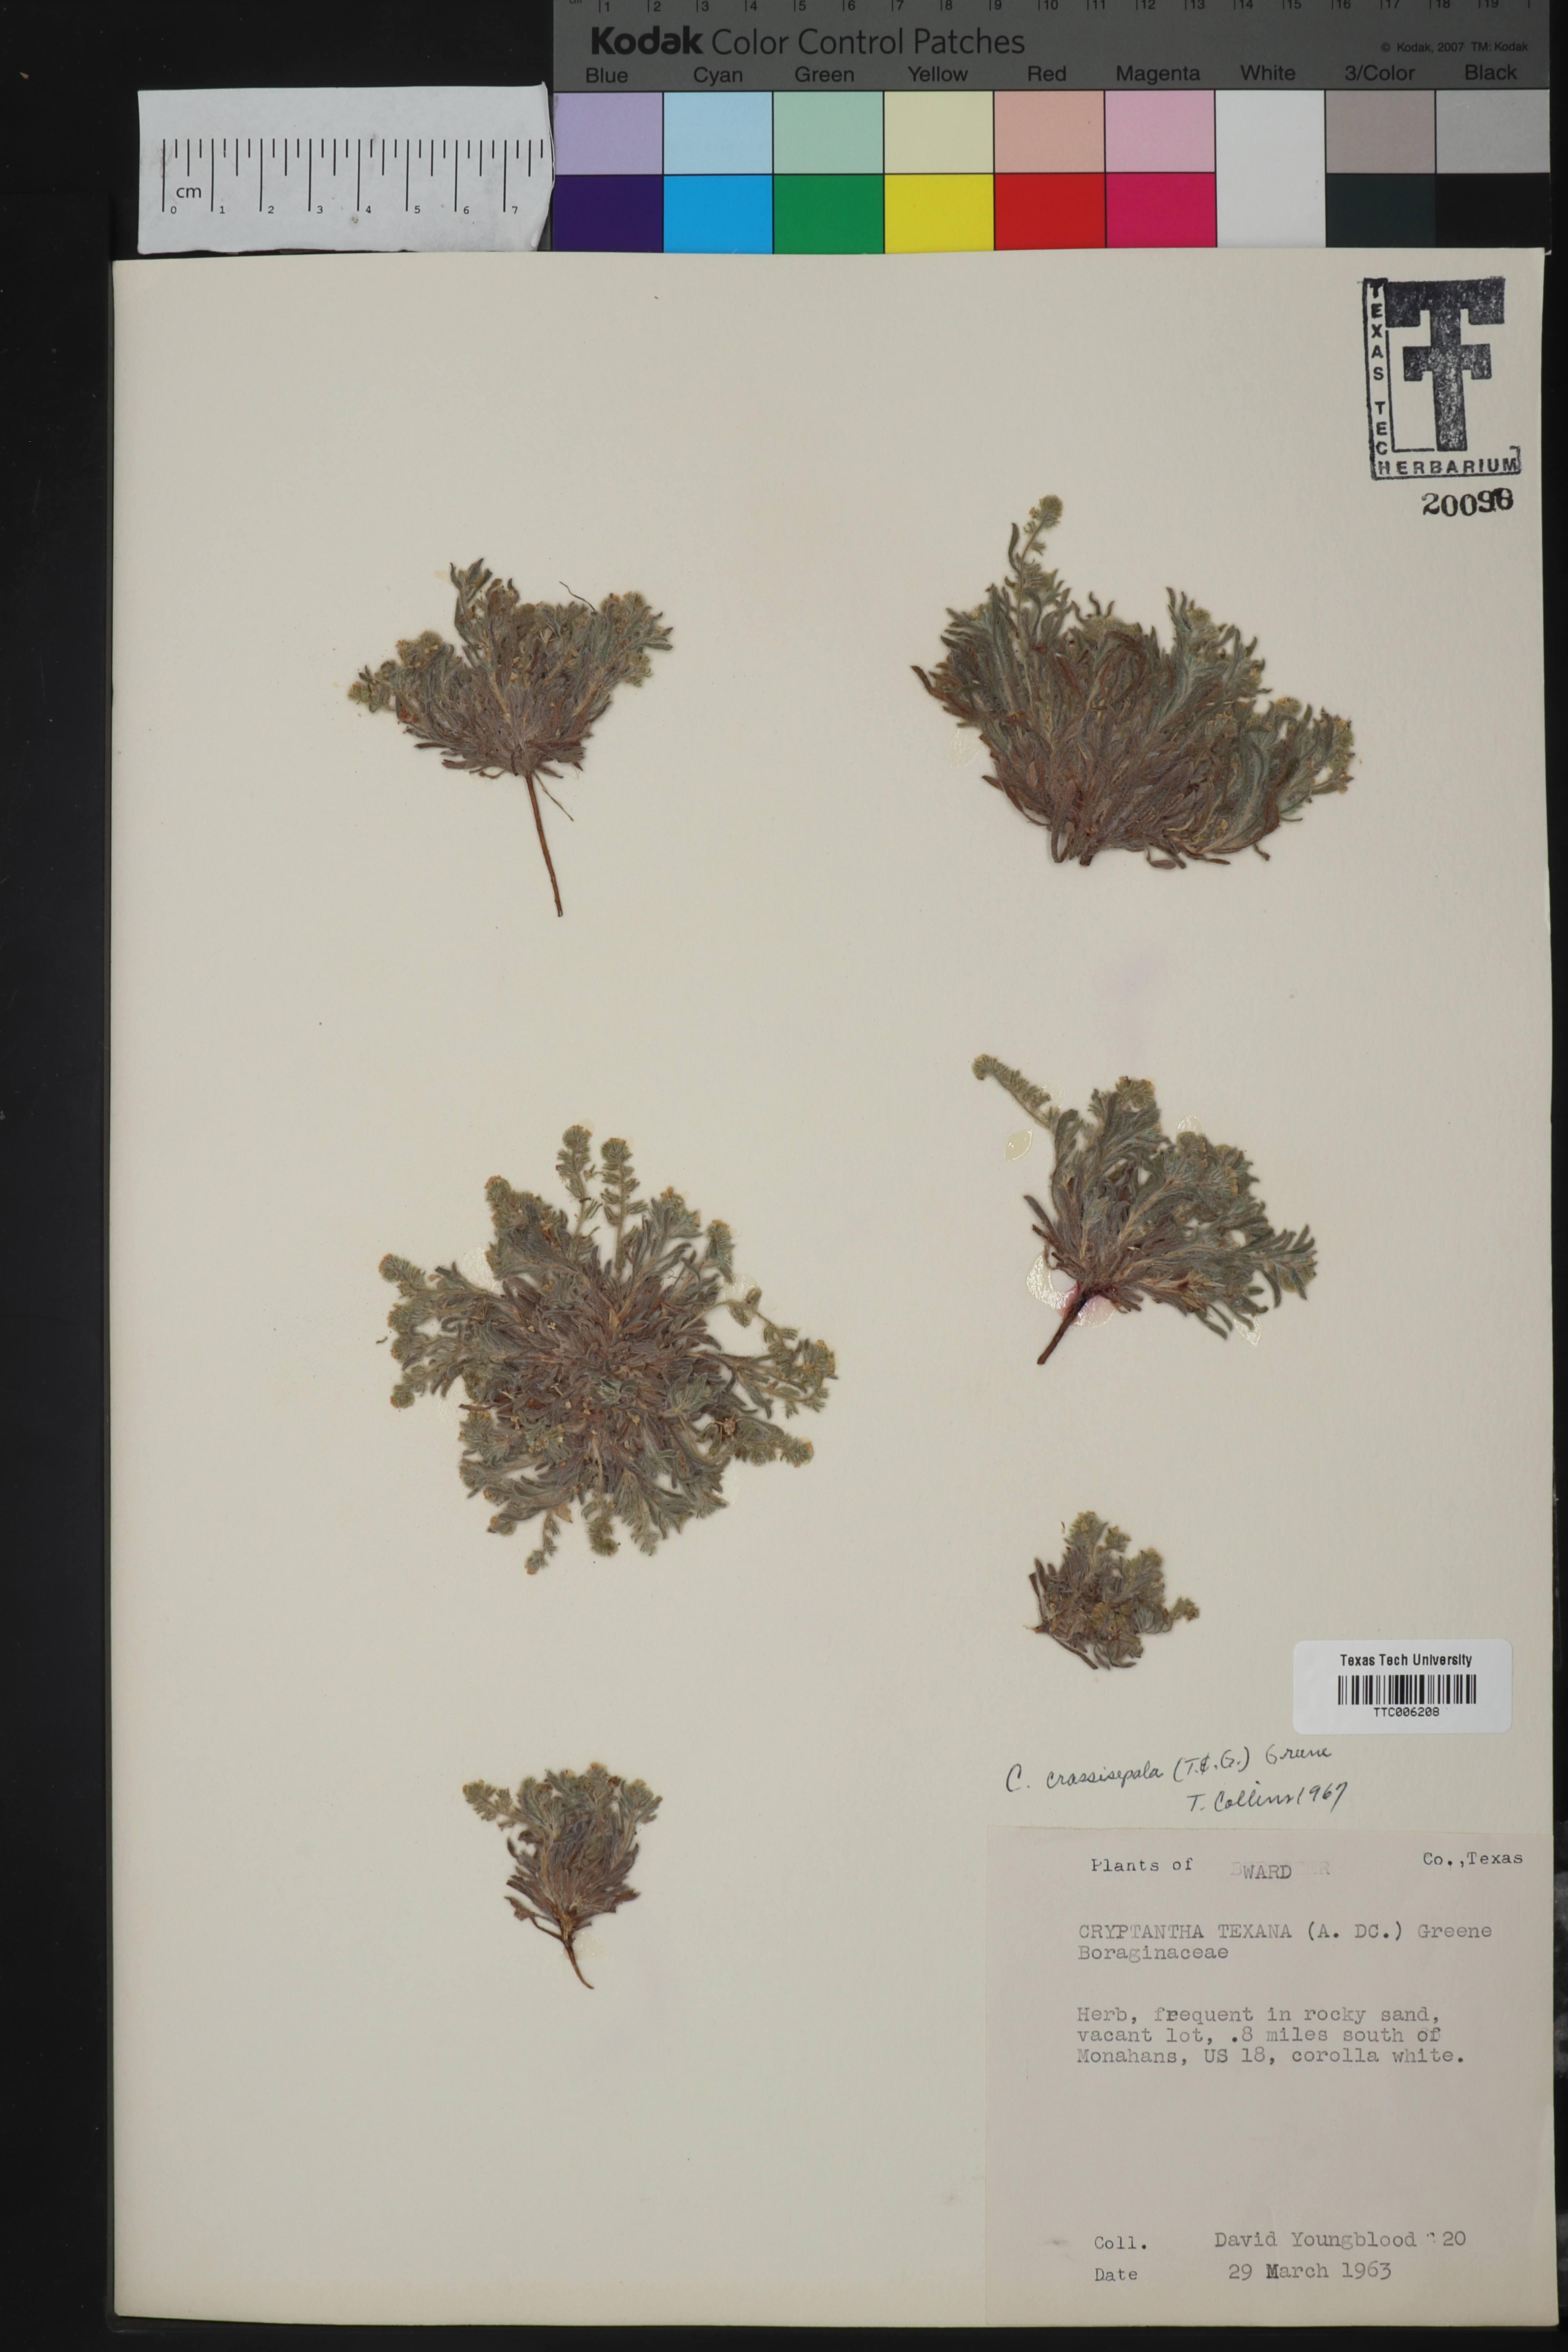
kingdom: Plantae
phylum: Tracheophyta
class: Magnoliopsida
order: Boraginales
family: Boraginaceae
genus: Cryptantha
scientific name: Cryptantha minima
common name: Little cat's-eye
